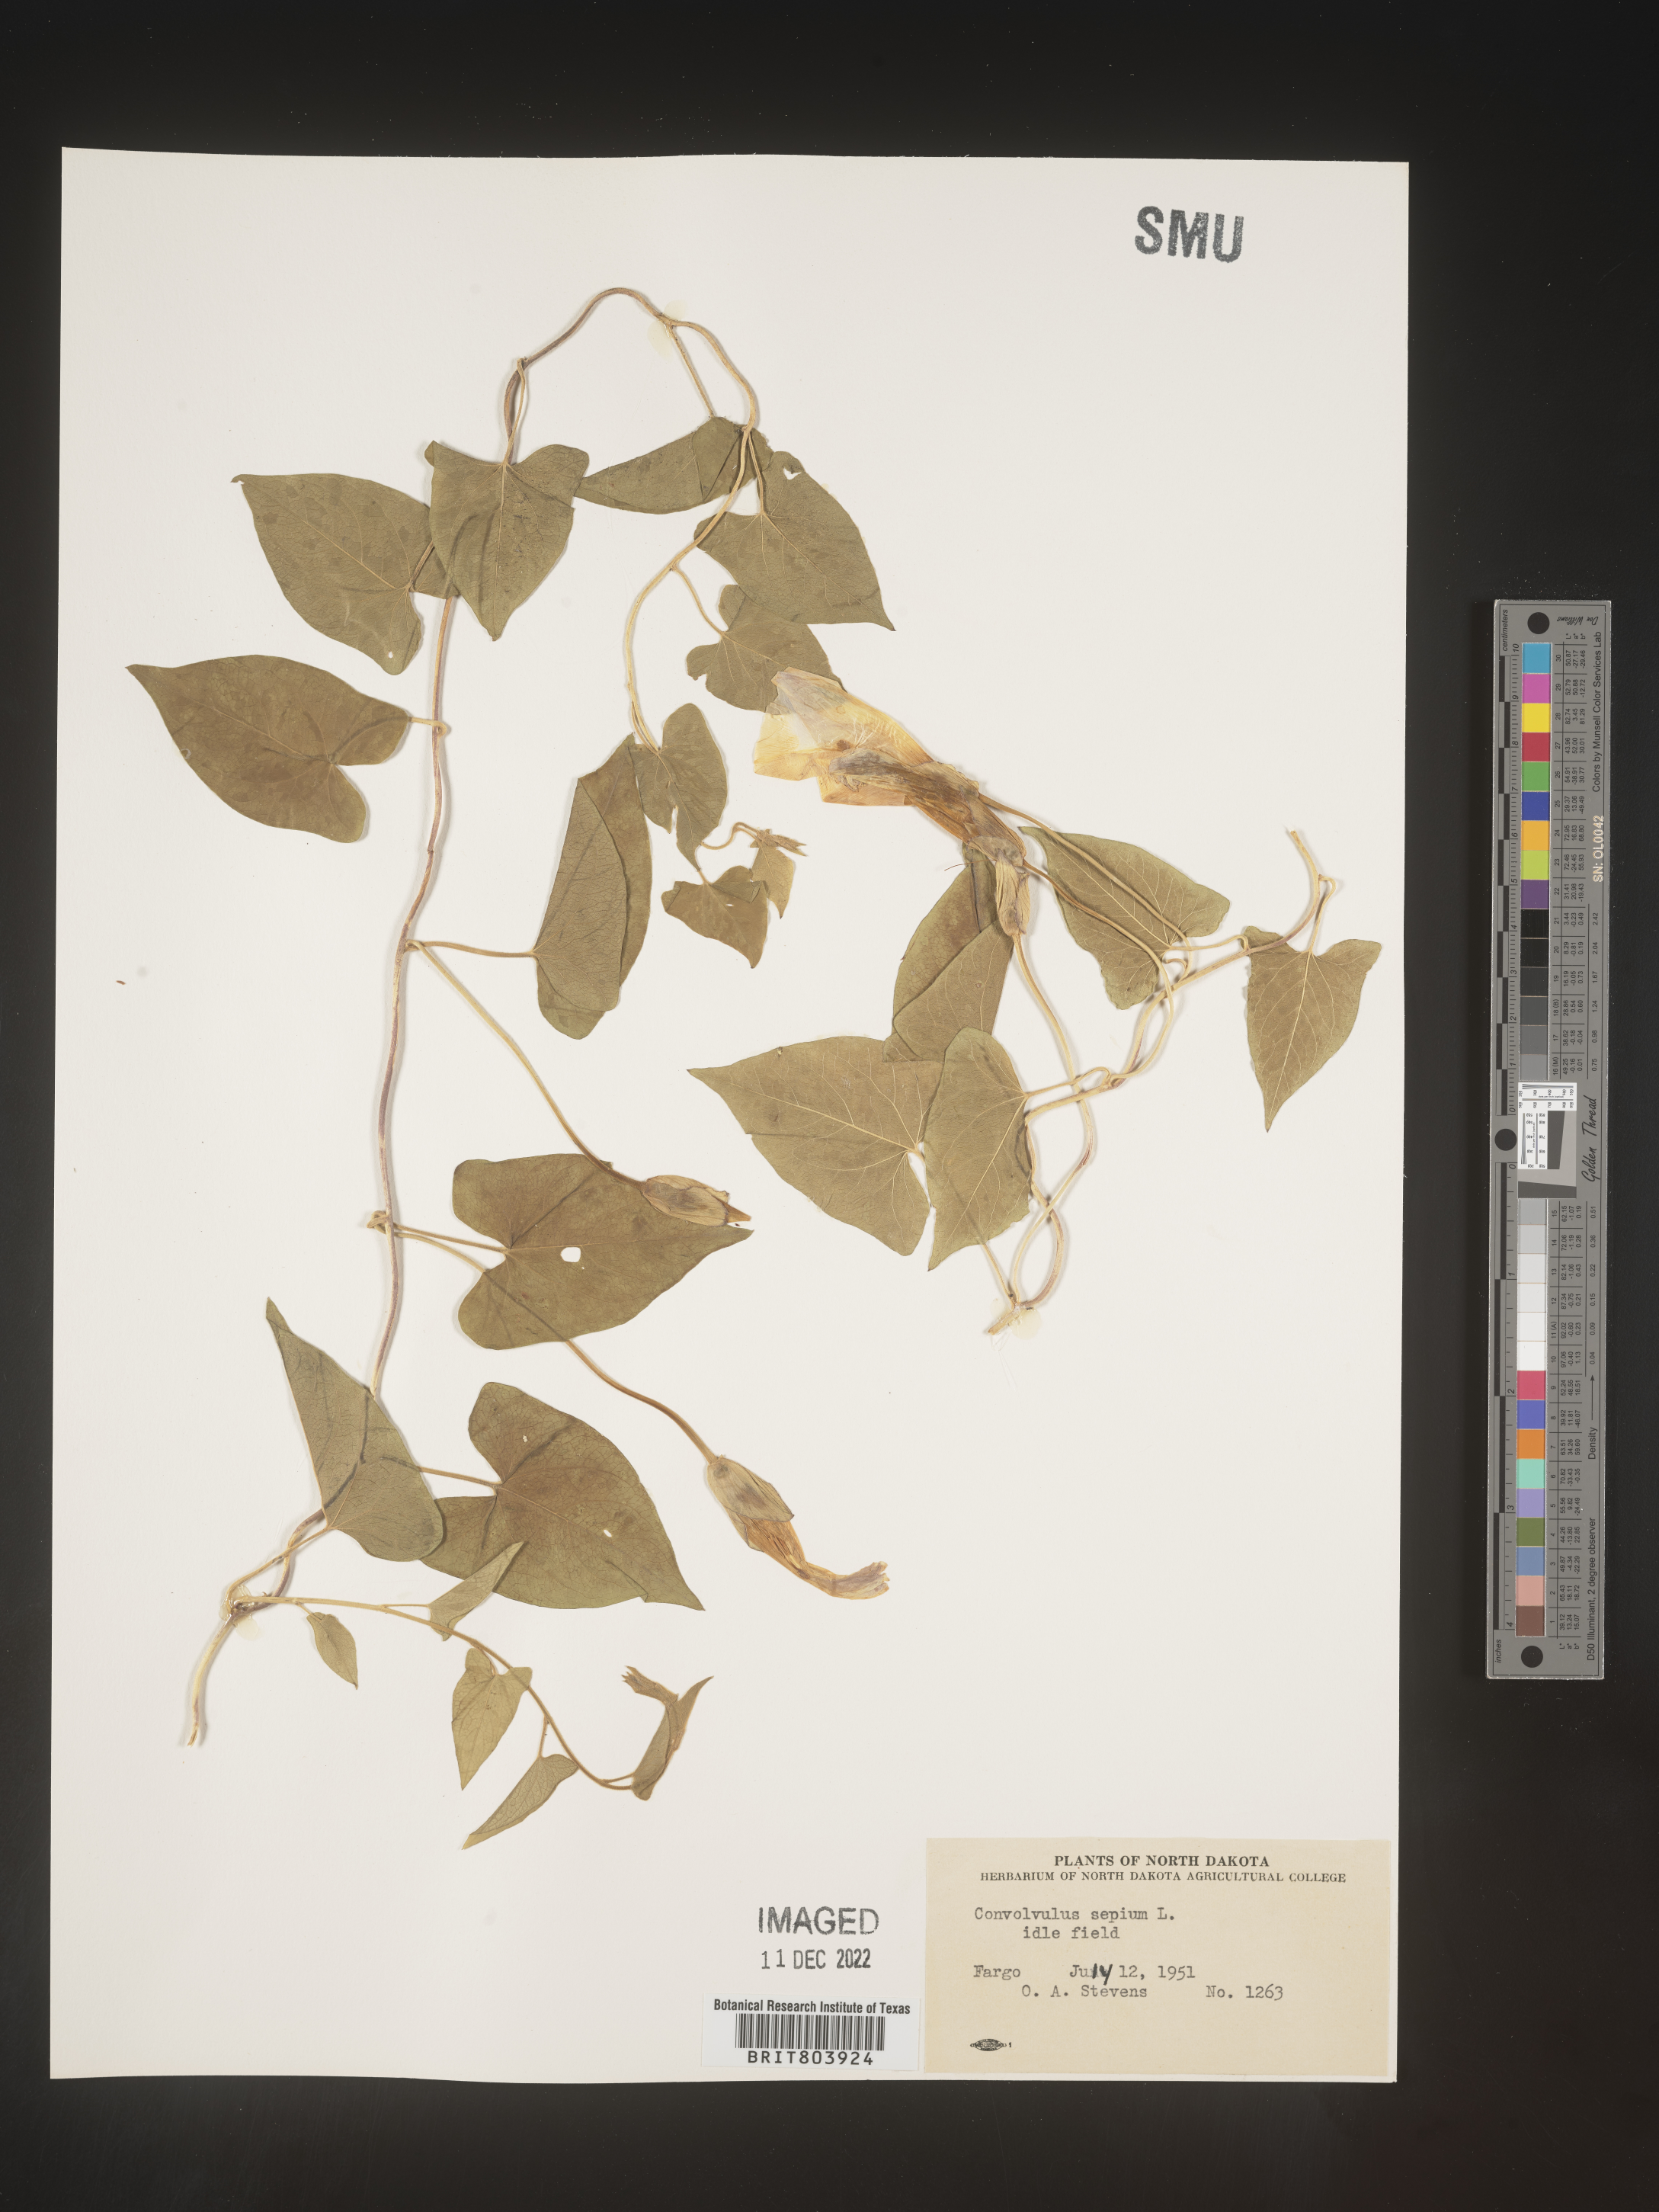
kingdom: Plantae
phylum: Tracheophyta
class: Magnoliopsida
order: Solanales
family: Convolvulaceae
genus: Calystegia
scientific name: Calystegia sepium
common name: Hedge bindweed
